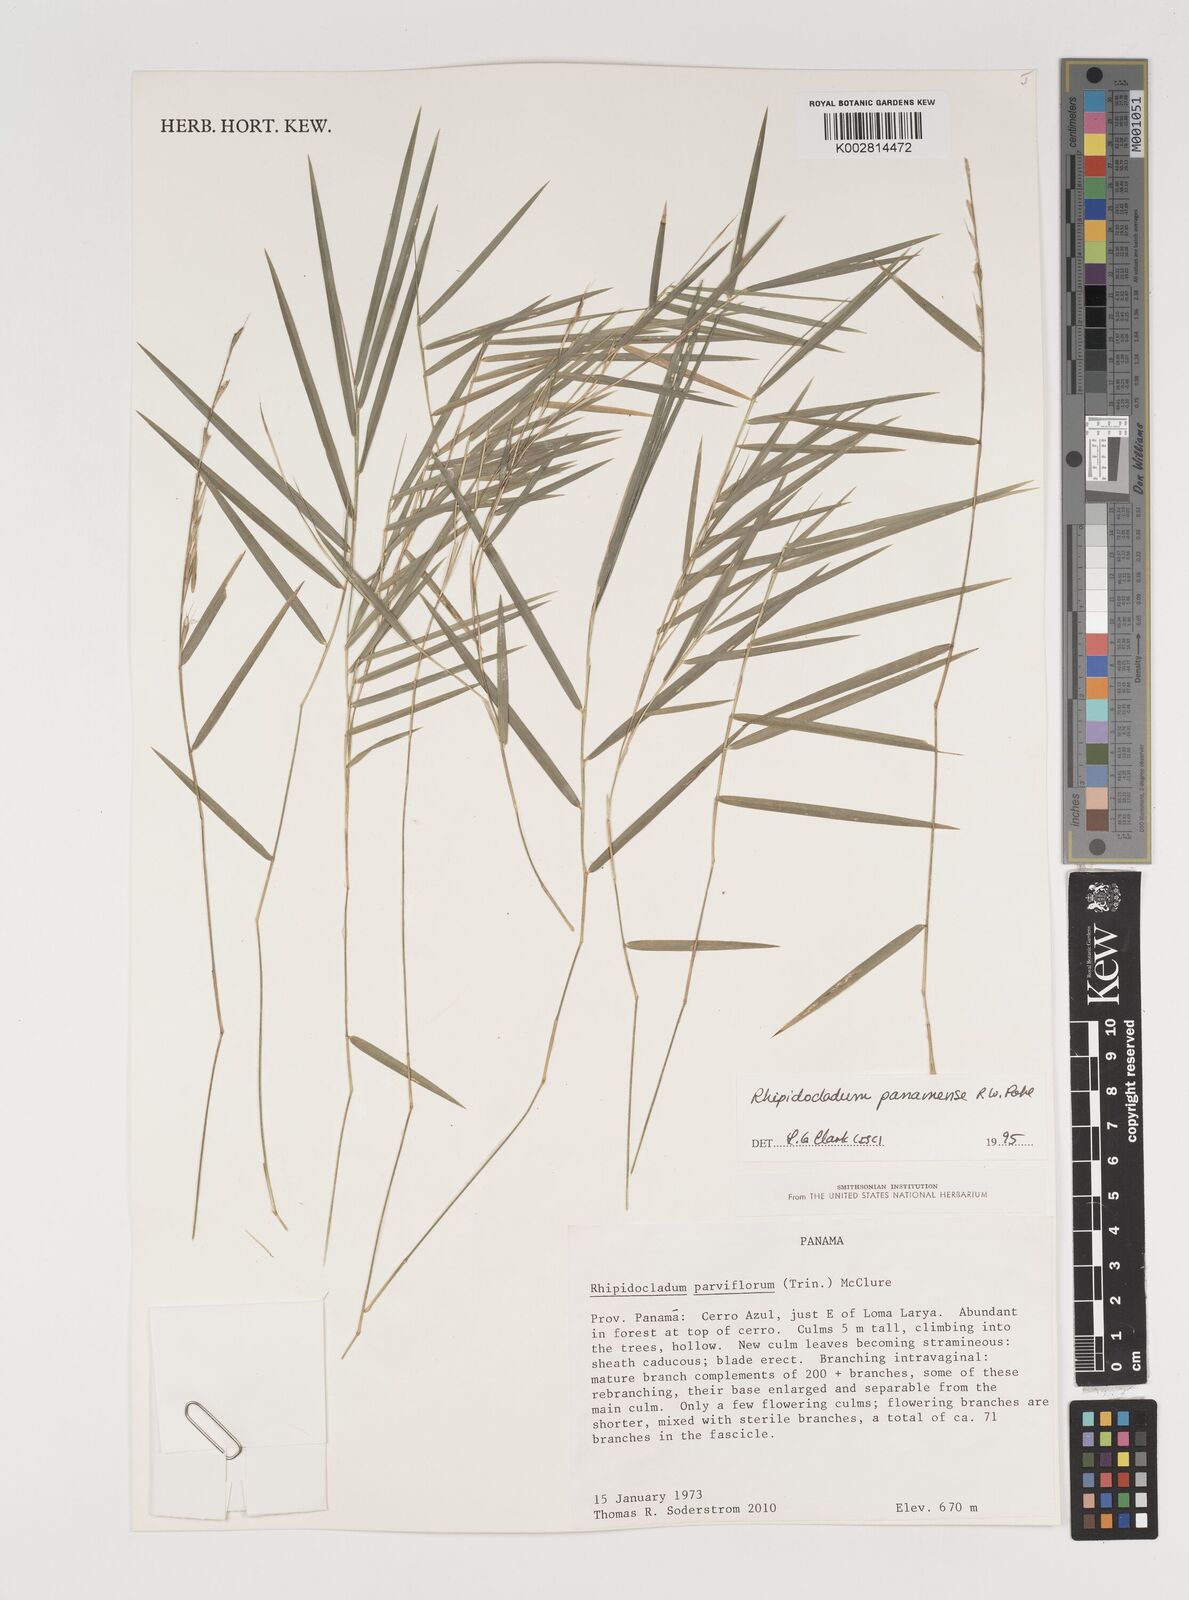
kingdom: Plantae
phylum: Tracheophyta
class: Liliopsida
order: Poales
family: Poaceae
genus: Rhipidocladum
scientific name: Rhipidocladum panamense
